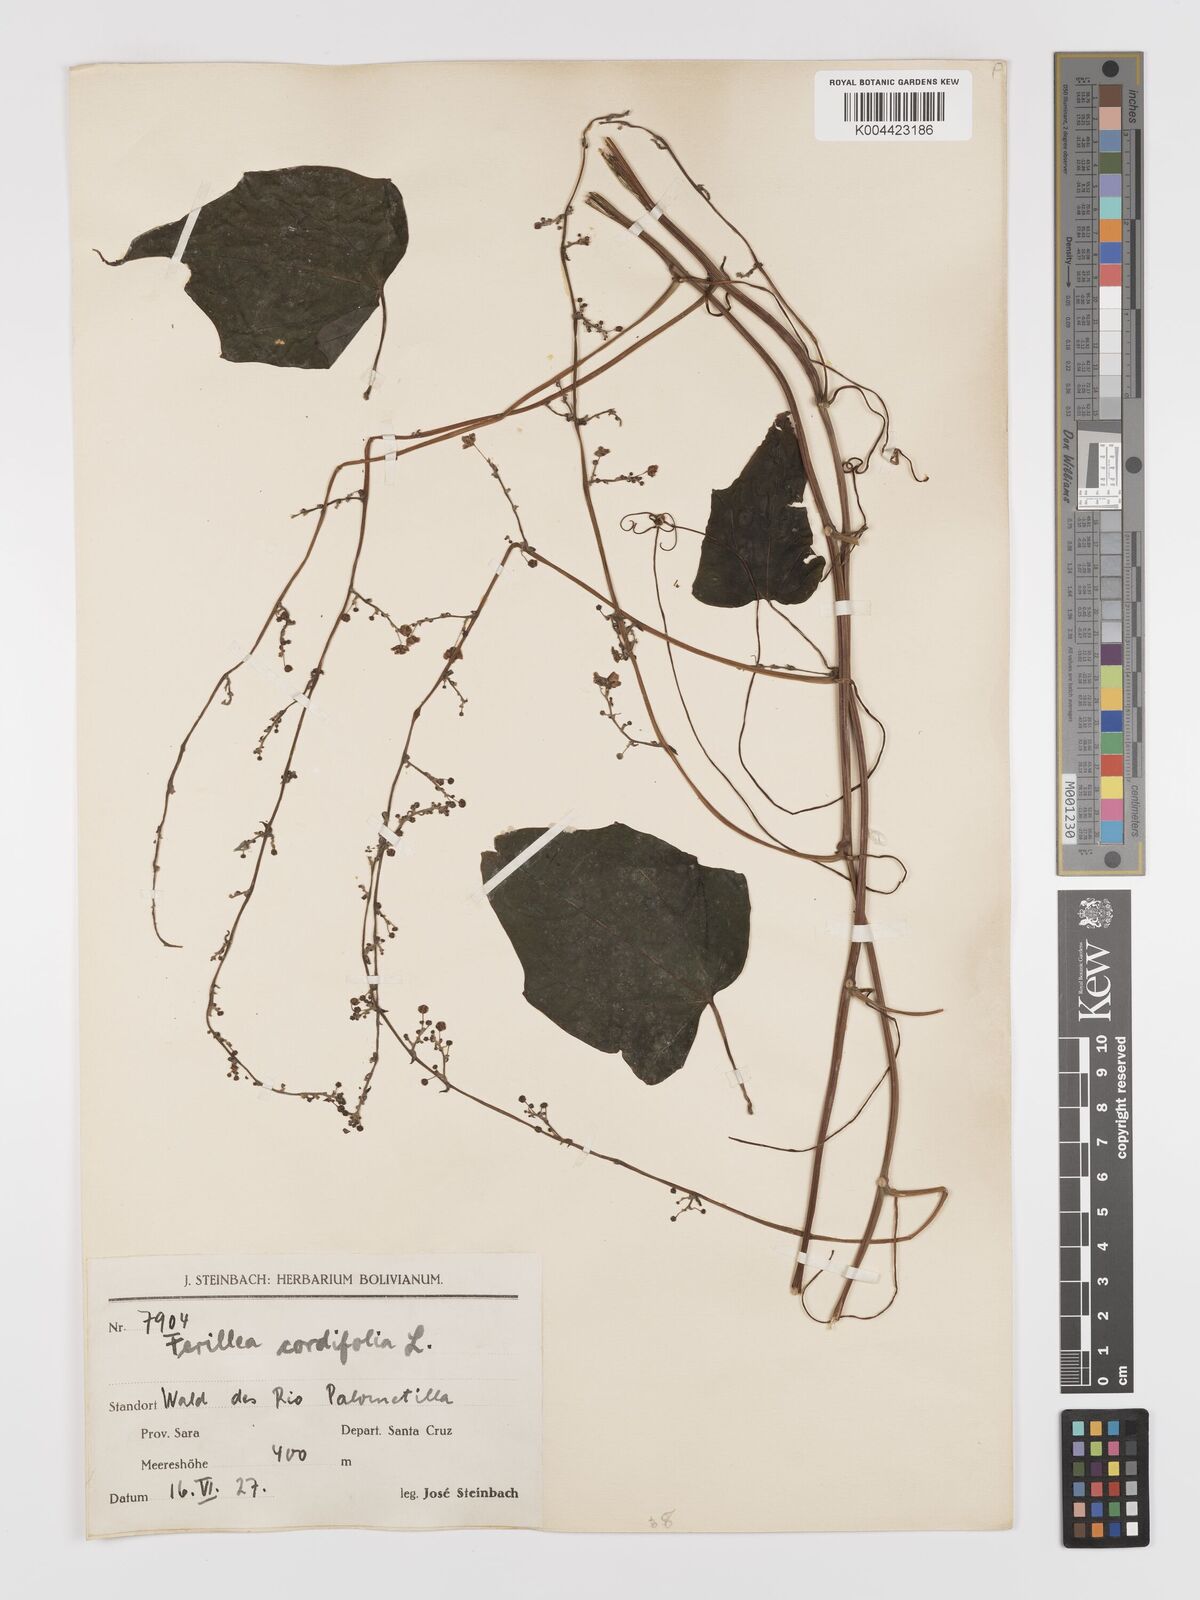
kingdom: Plantae
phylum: Tracheophyta
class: Magnoliopsida
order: Cucurbitales
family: Cucurbitaceae
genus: Fevillea
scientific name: Fevillea
